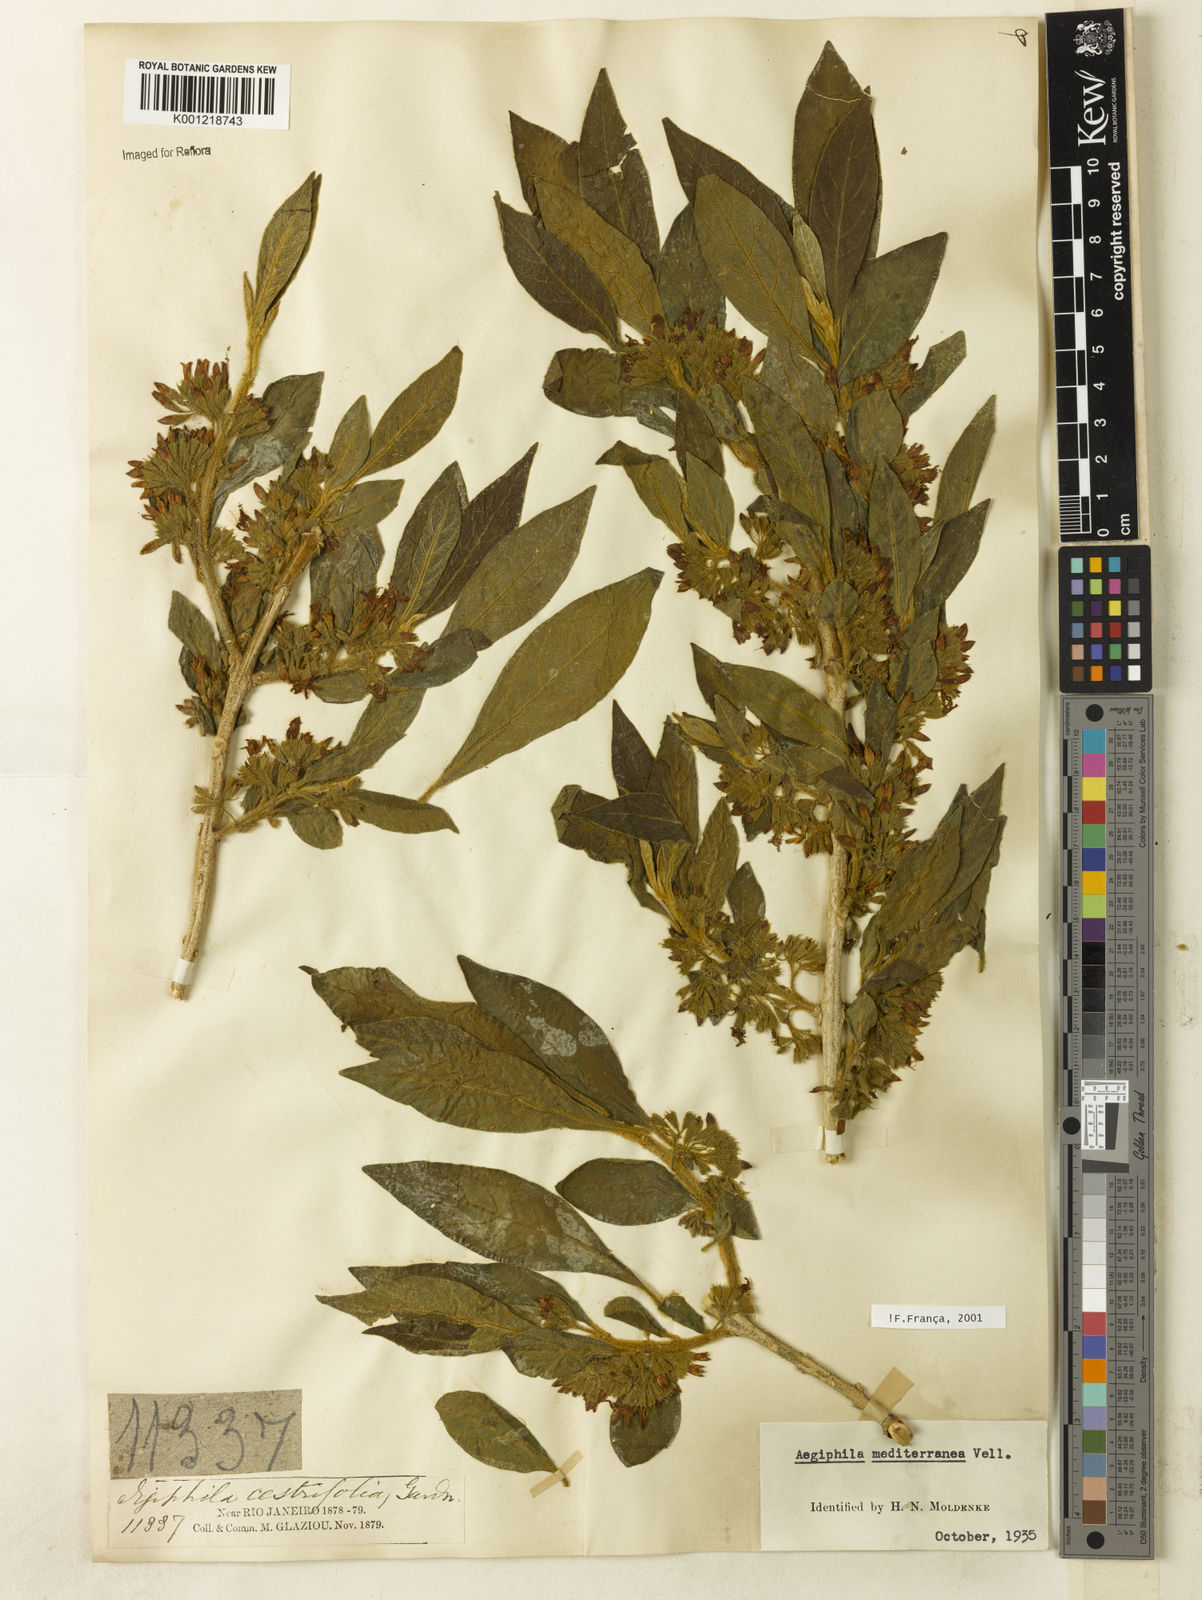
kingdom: Plantae
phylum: Tracheophyta
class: Magnoliopsida
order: Lamiales
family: Lamiaceae
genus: Aegiphila
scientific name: Aegiphila mediterranea
